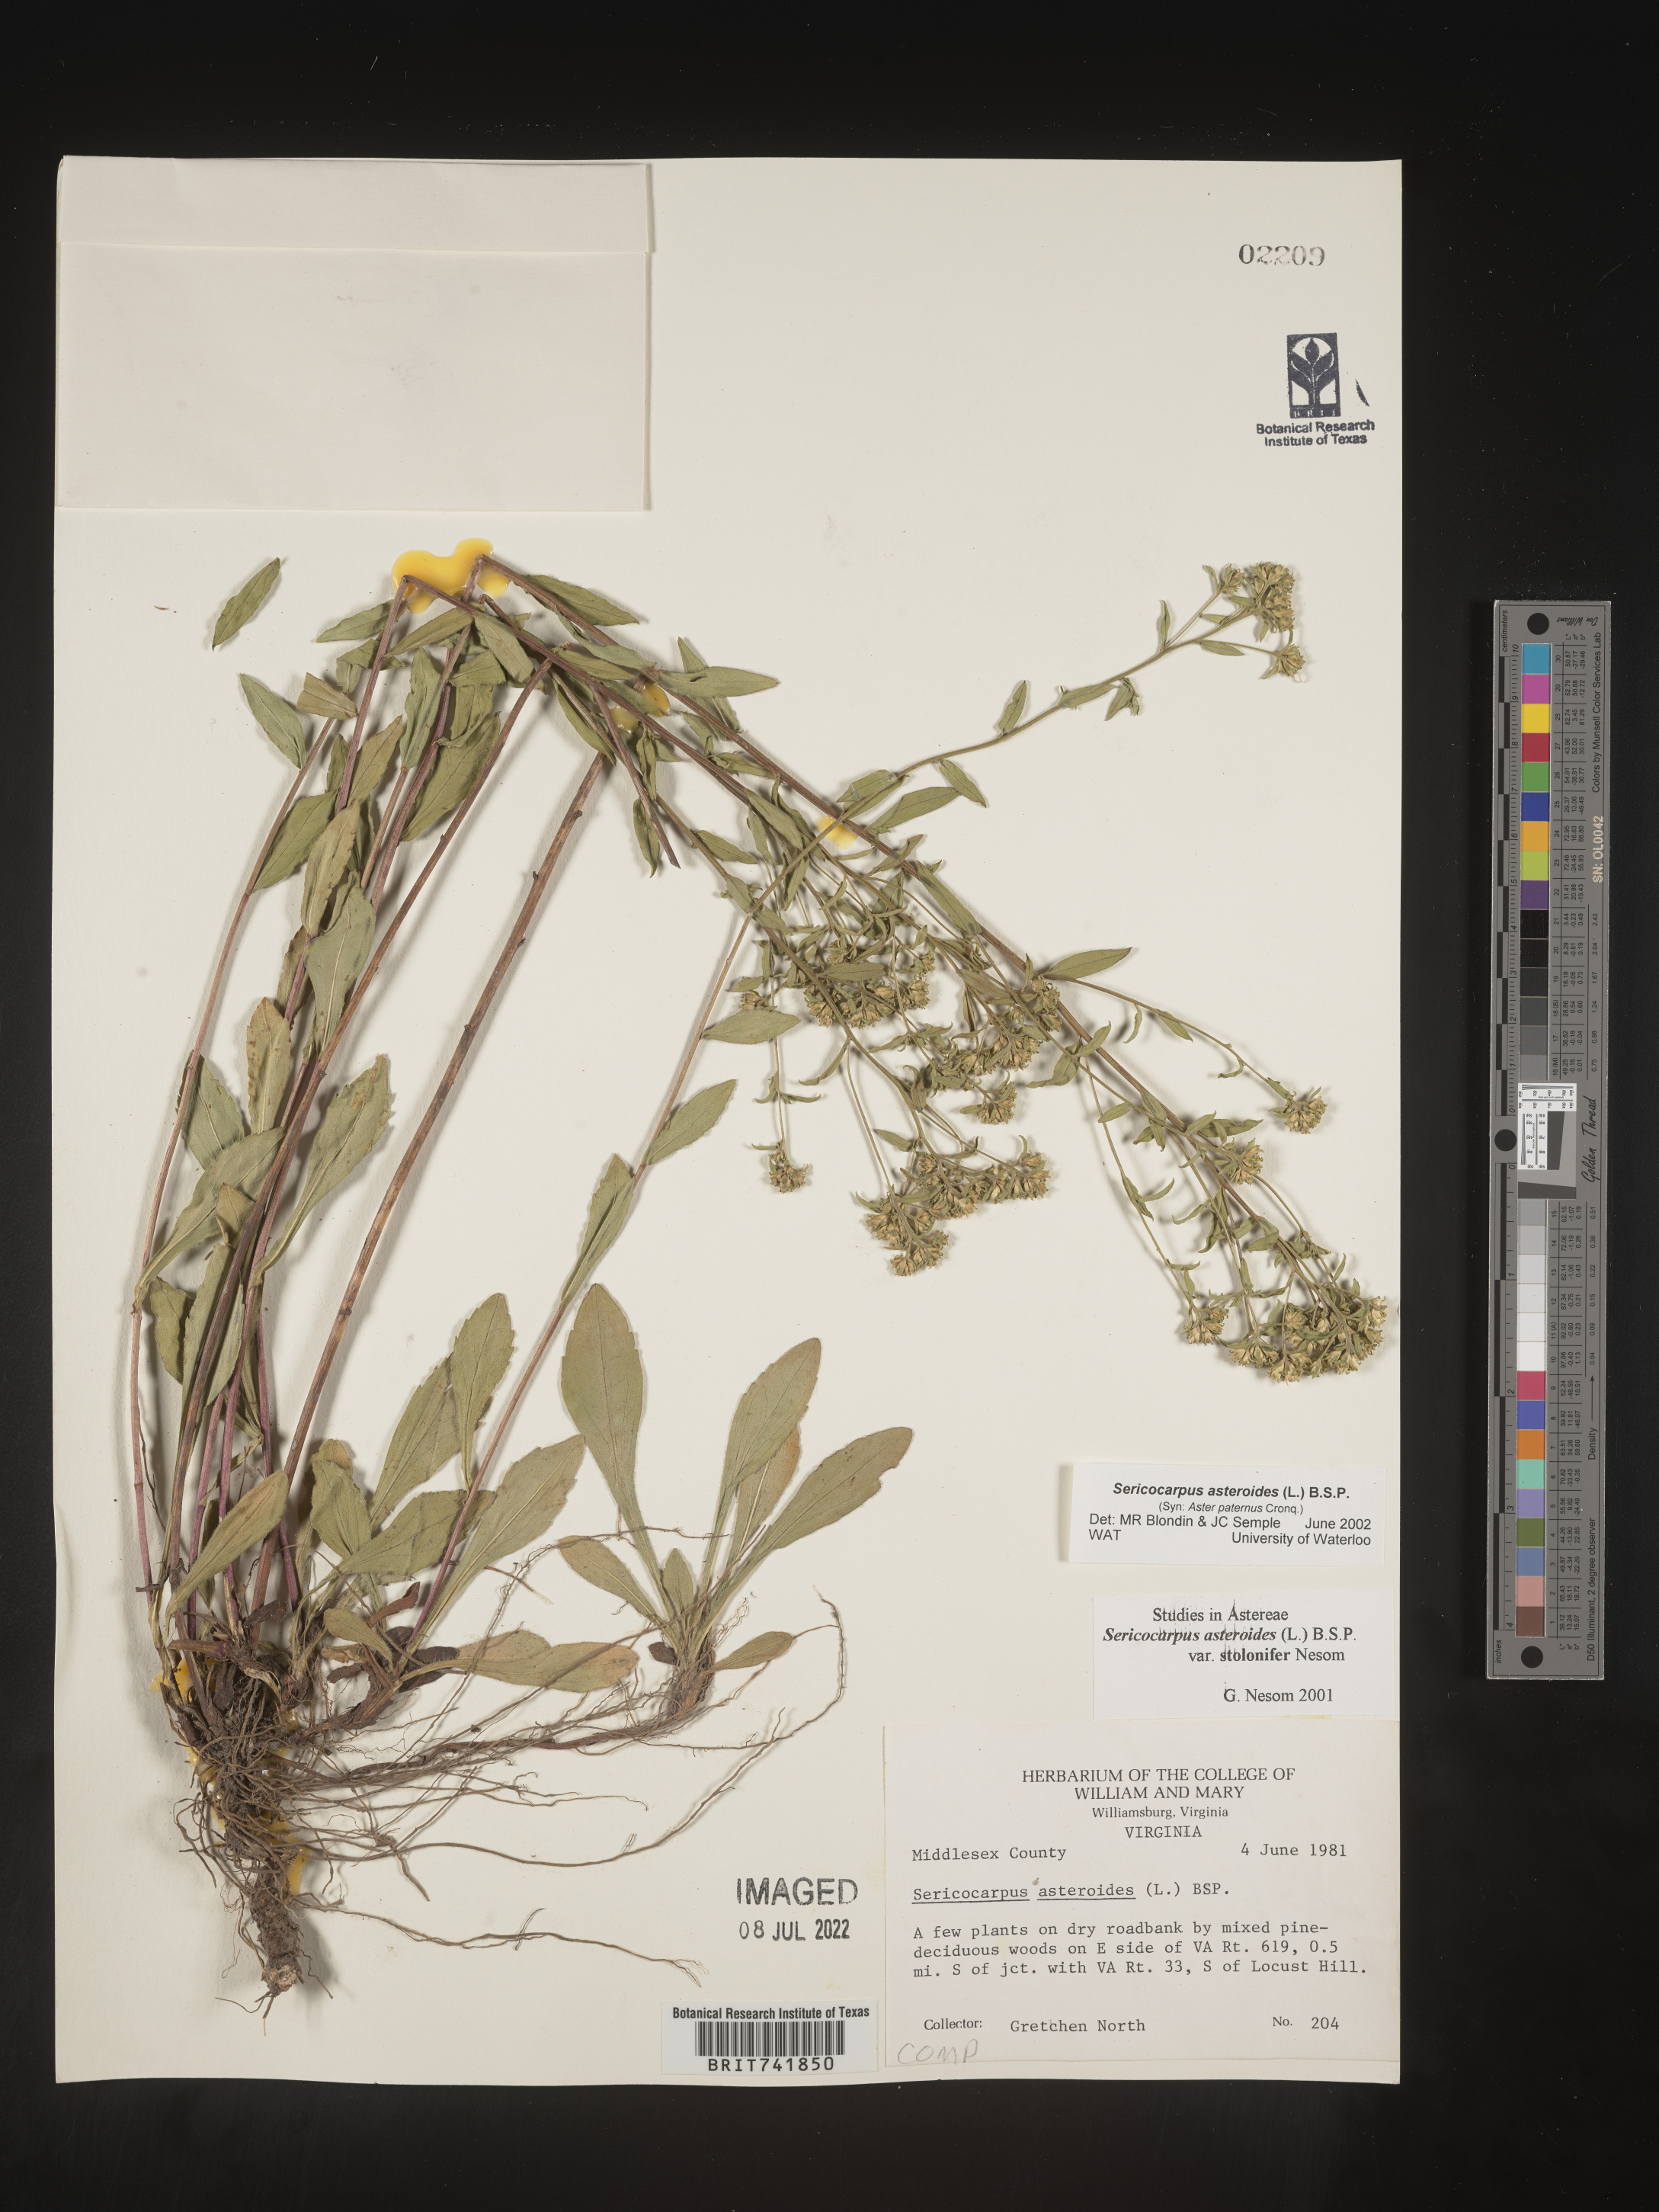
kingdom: Plantae
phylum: Tracheophyta
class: Magnoliopsida
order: Asterales
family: Asteraceae
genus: Sericocarpus
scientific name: Sericocarpus asteroides
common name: Toothed white-top aster
